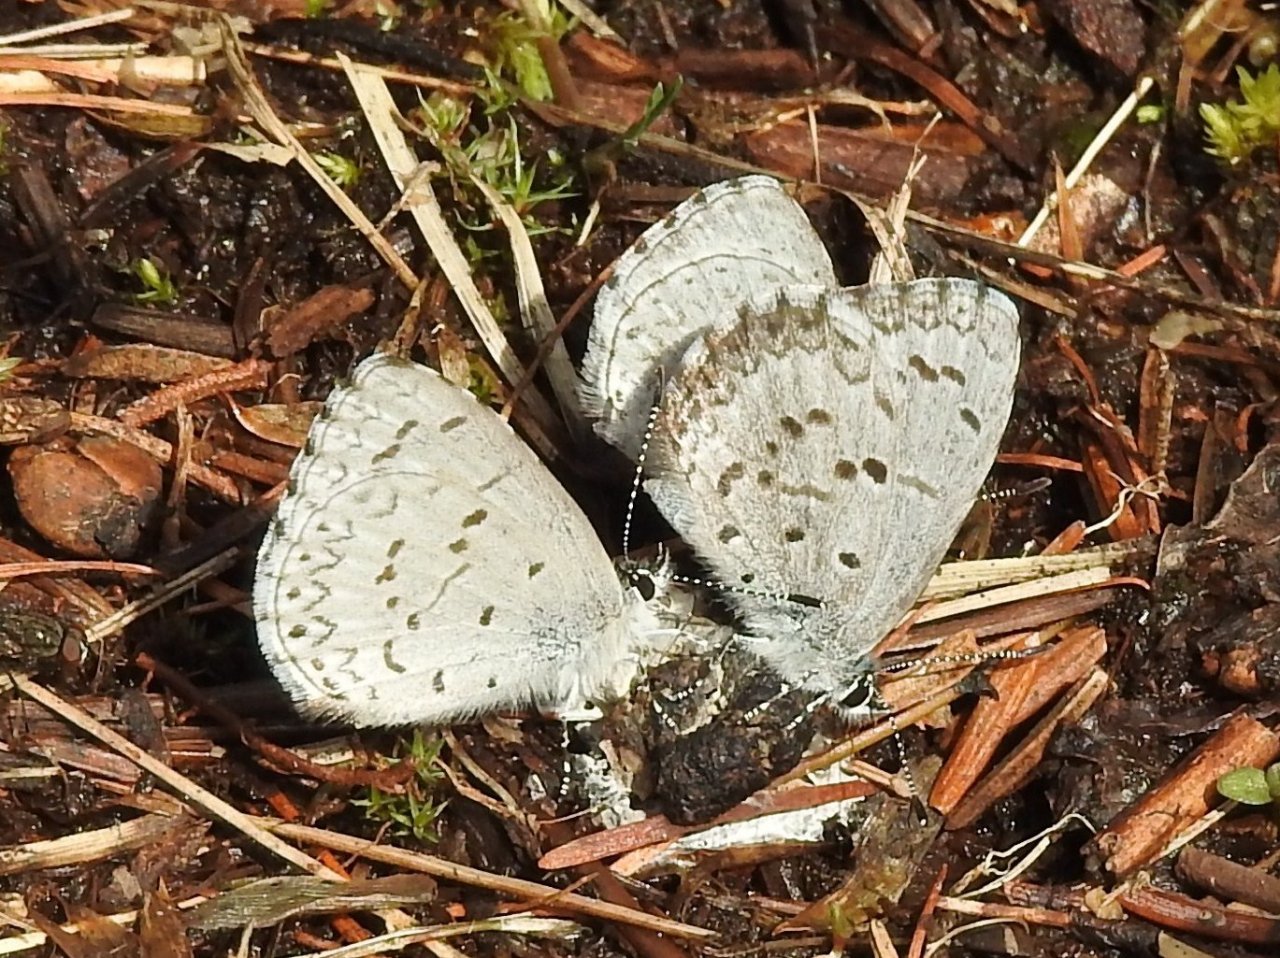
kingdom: Animalia
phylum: Arthropoda
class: Insecta
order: Lepidoptera
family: Lycaenidae
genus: Celastrina
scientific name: Celastrina
